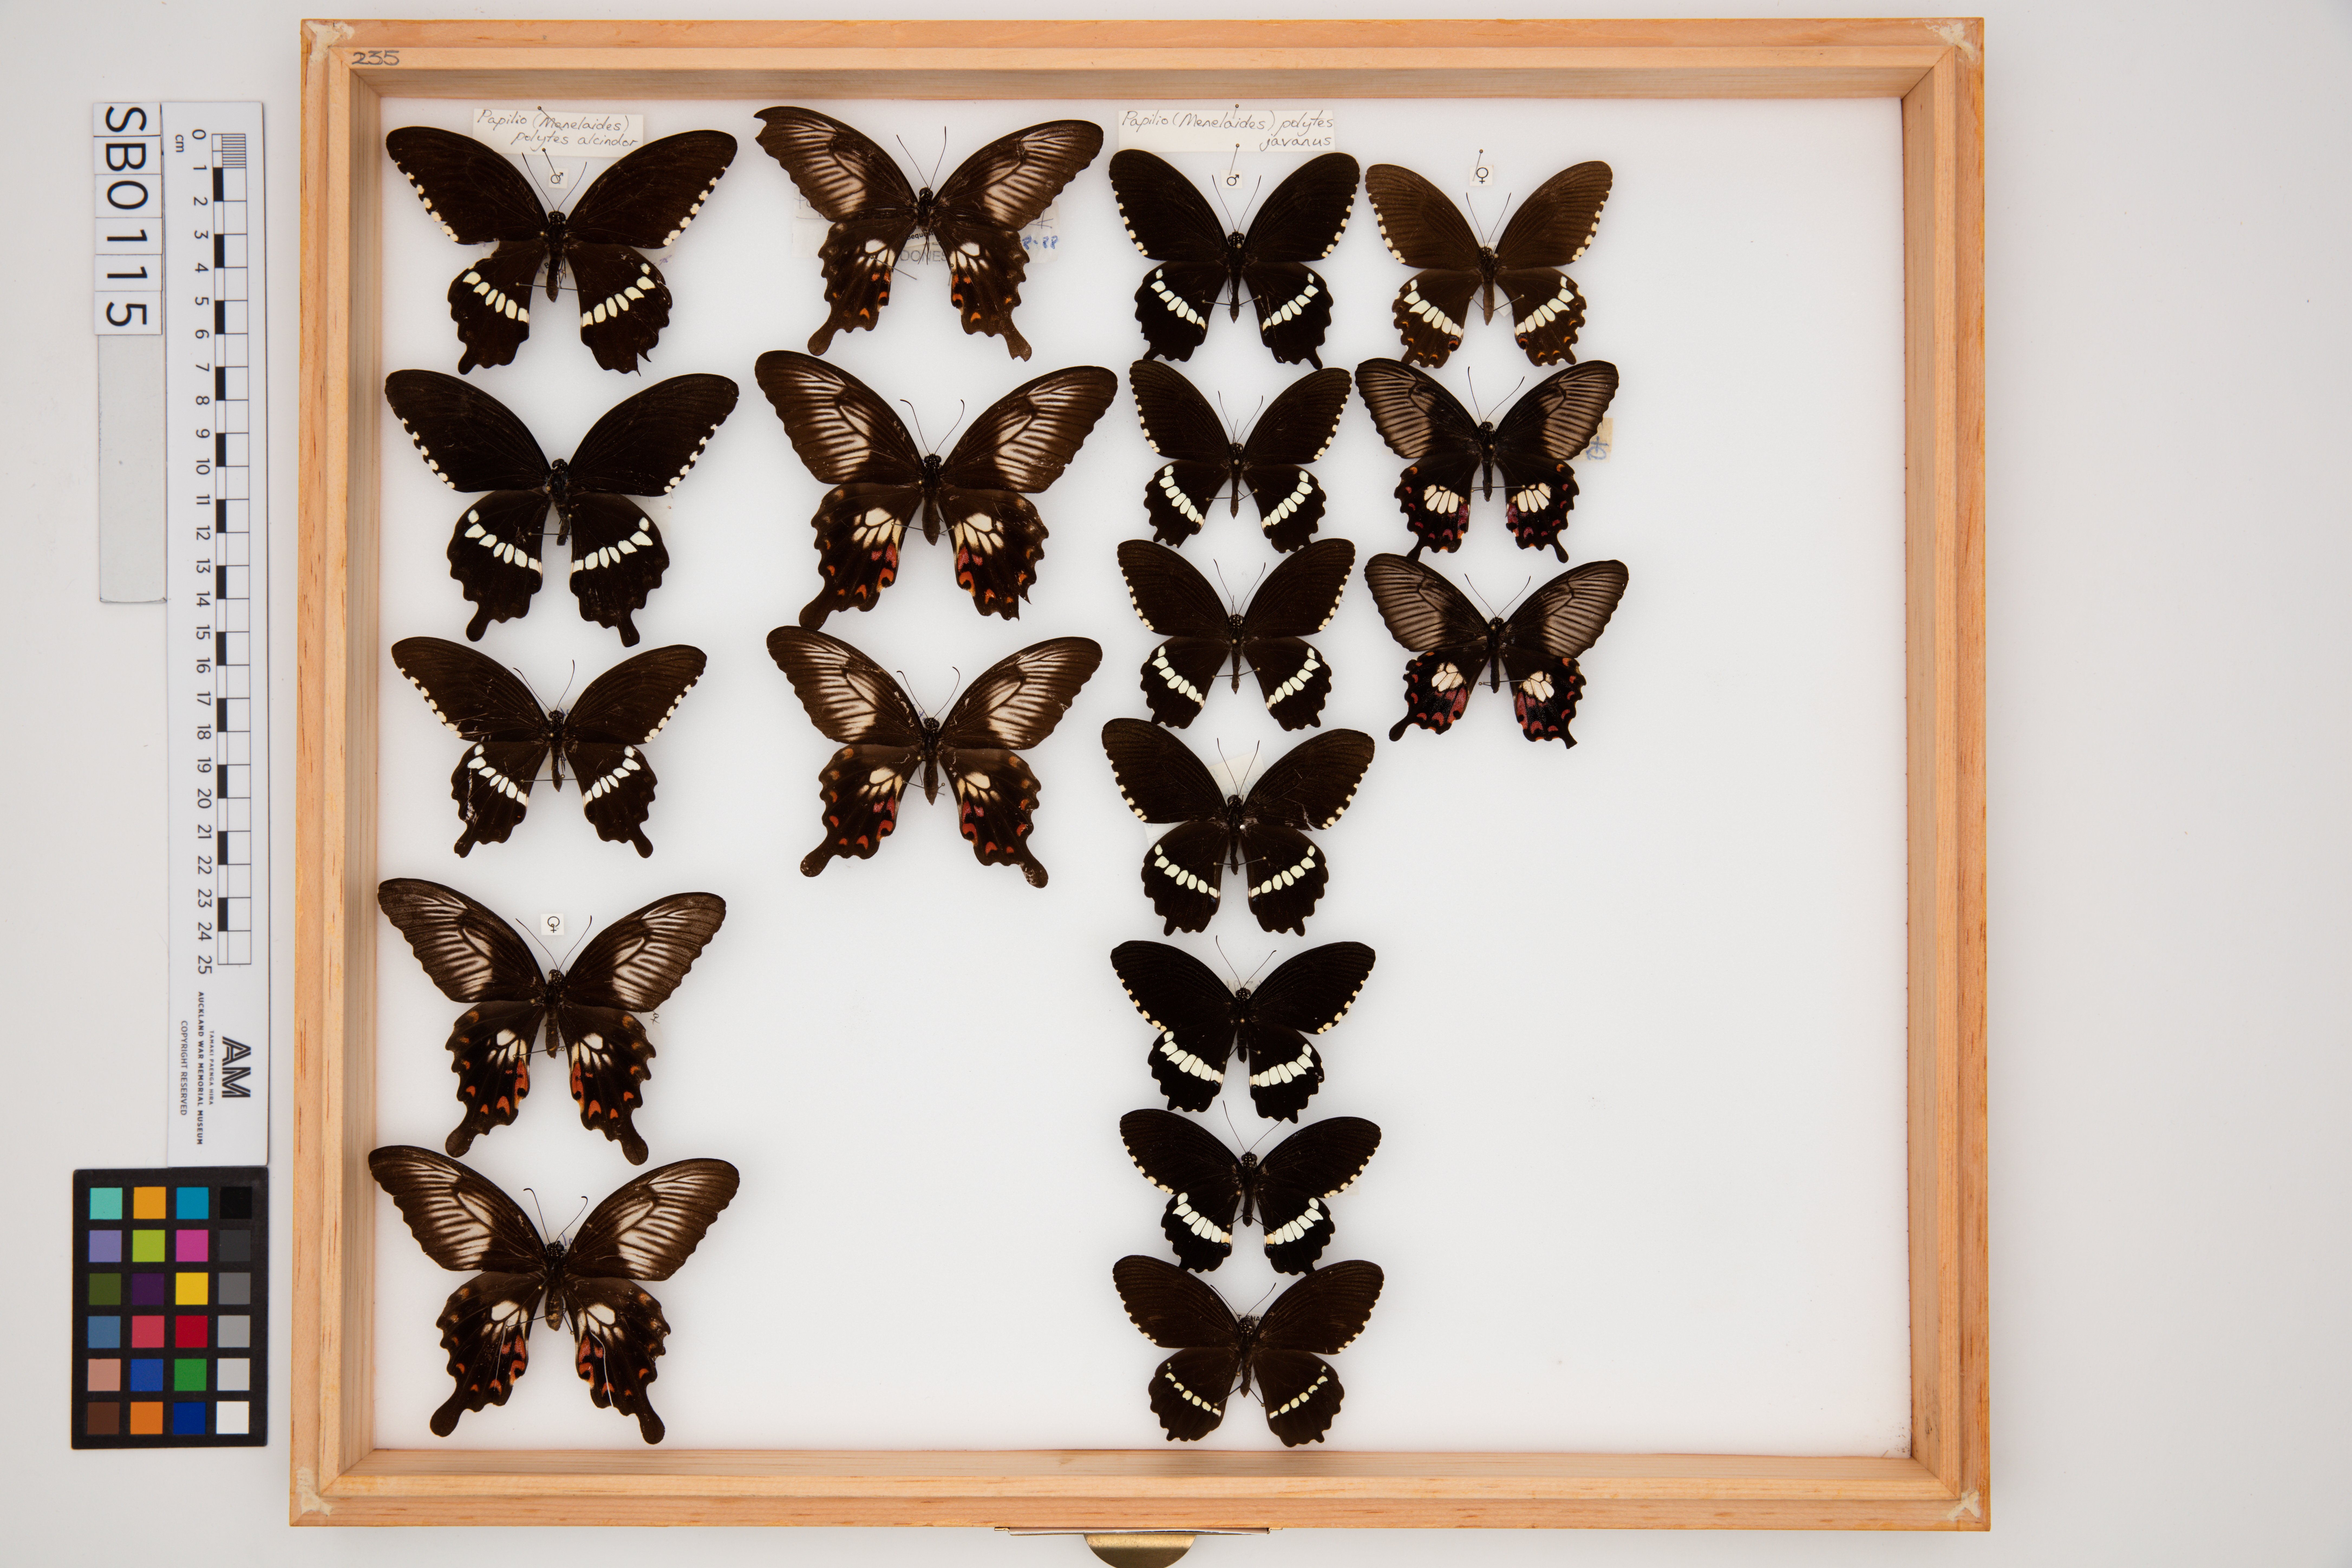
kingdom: Animalia
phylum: Arthropoda
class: Insecta
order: Lepidoptera
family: Papilionidae
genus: Papilio
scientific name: Papilio polytes
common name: Common mormon
